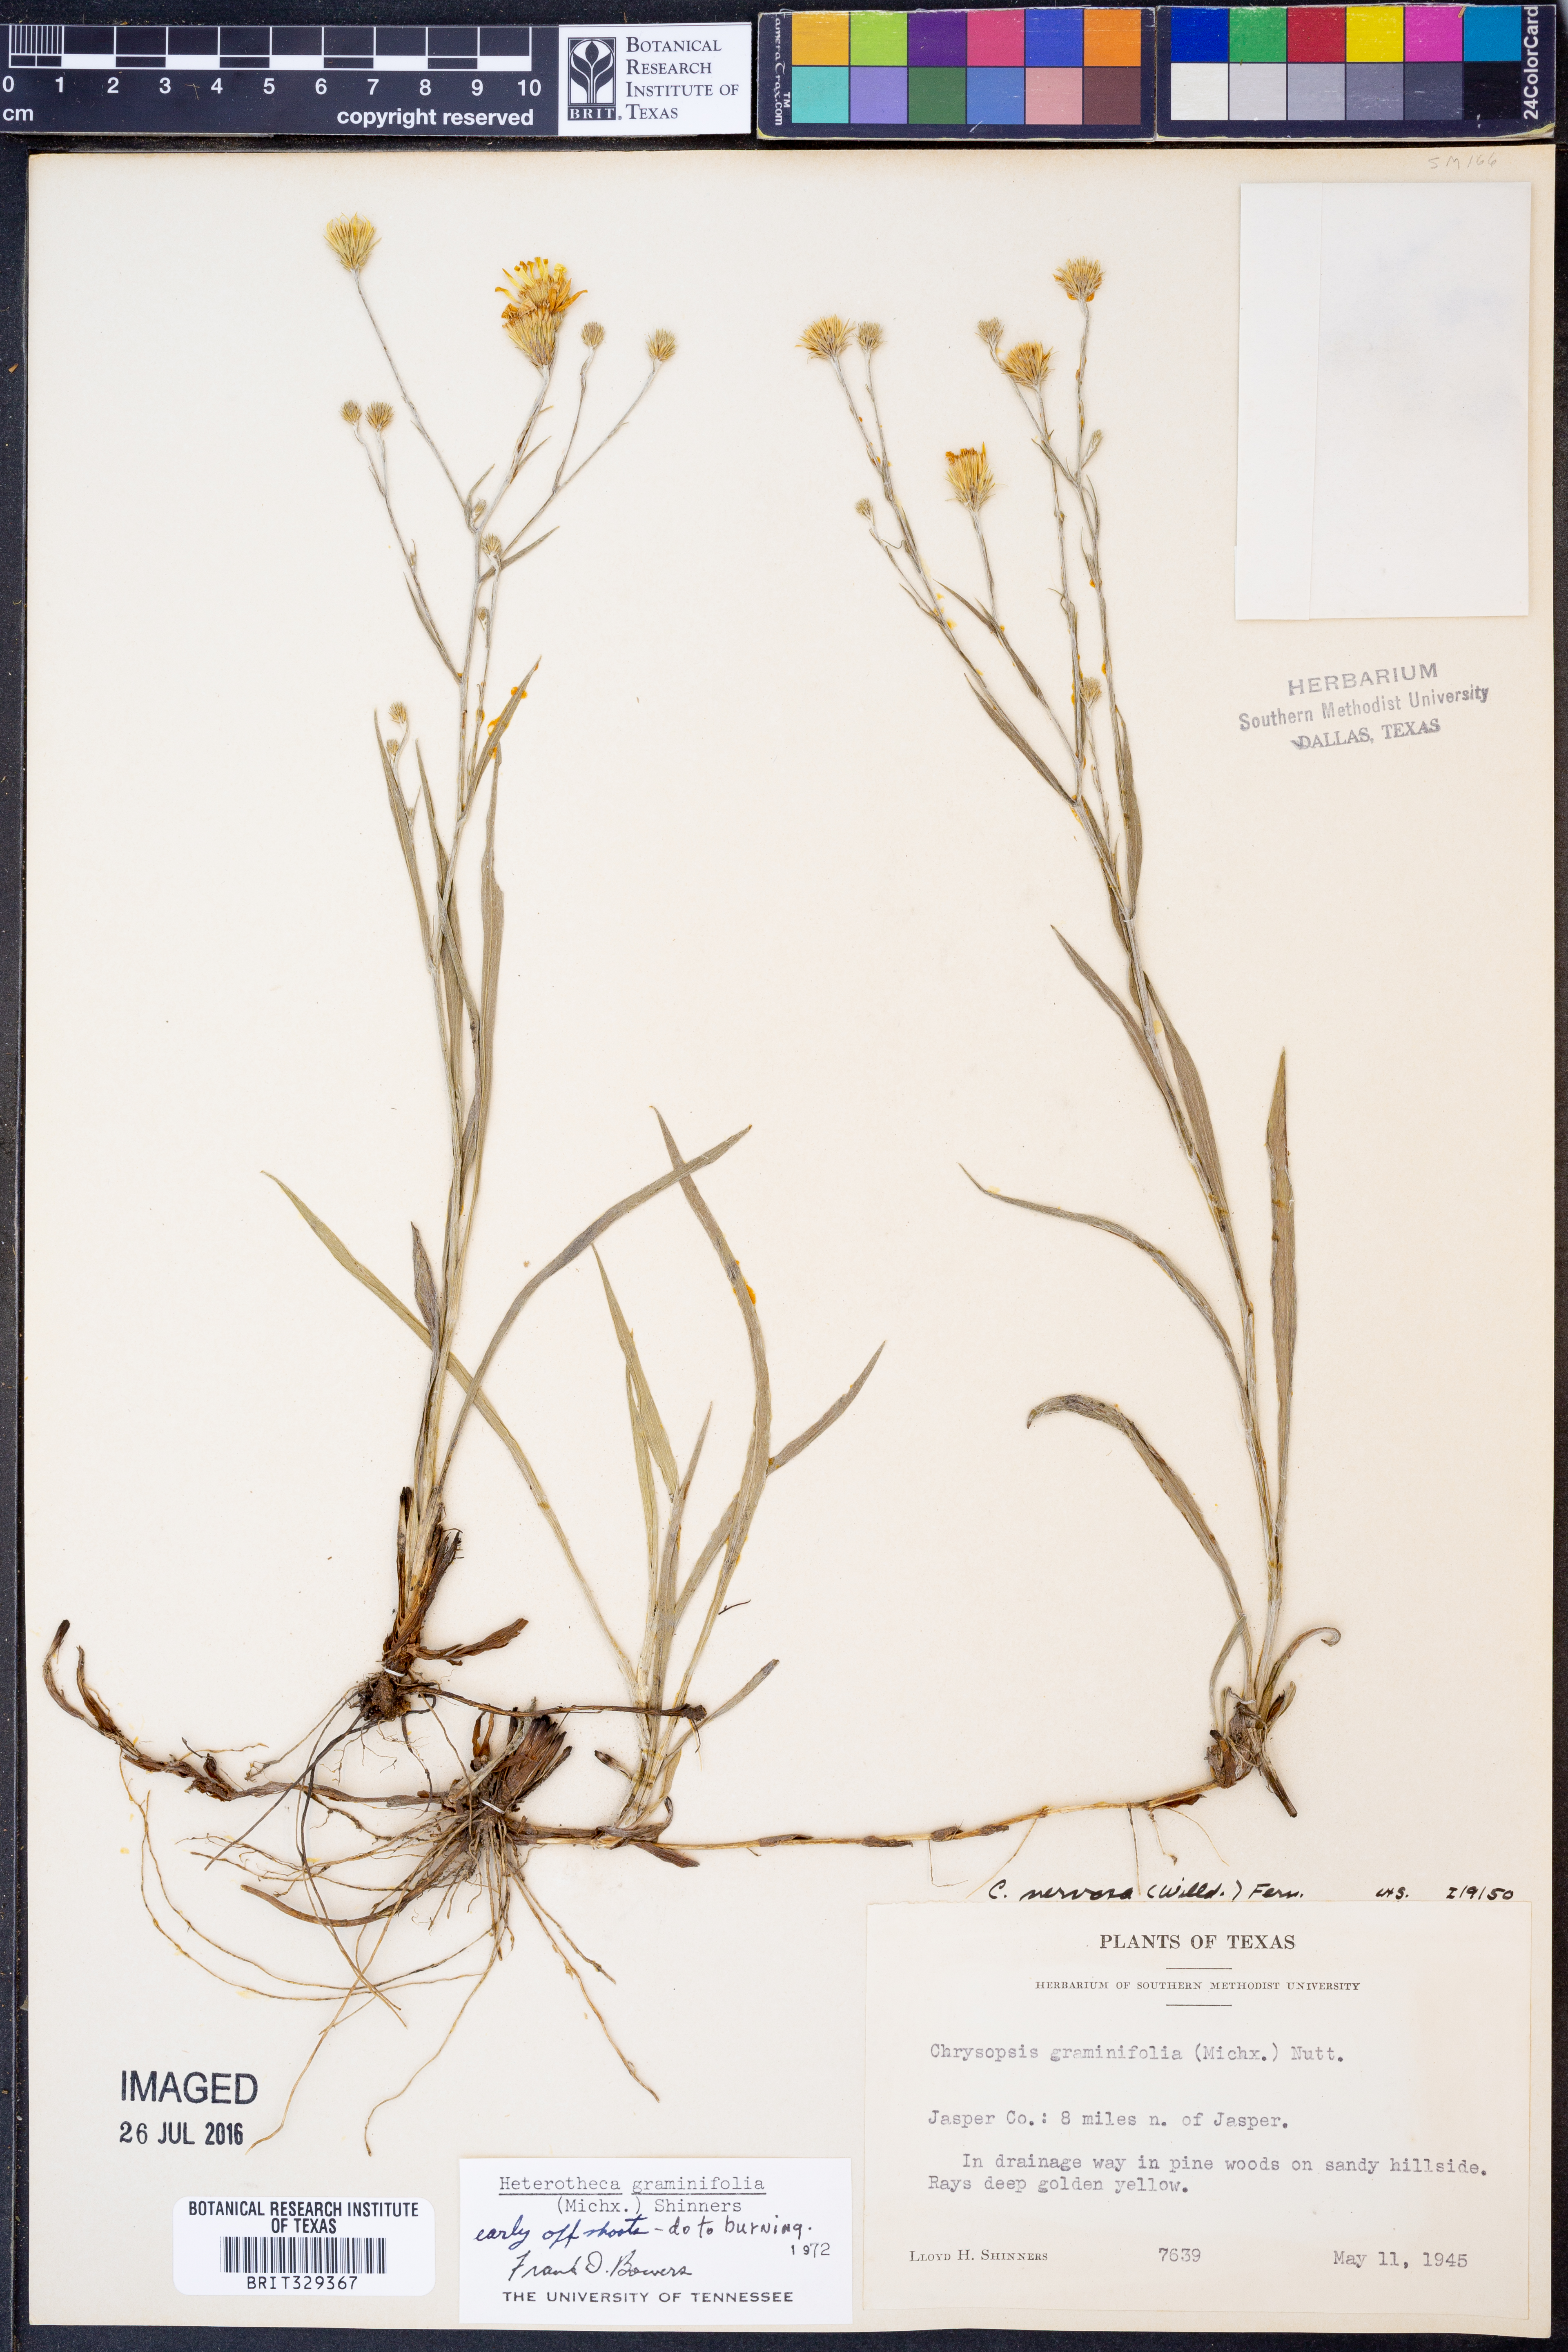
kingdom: Plantae
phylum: Tracheophyta
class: Magnoliopsida
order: Asterales
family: Asteraceae
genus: Pityopsis
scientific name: Pityopsis graminifolia
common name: Grass-leaf golden-aster
